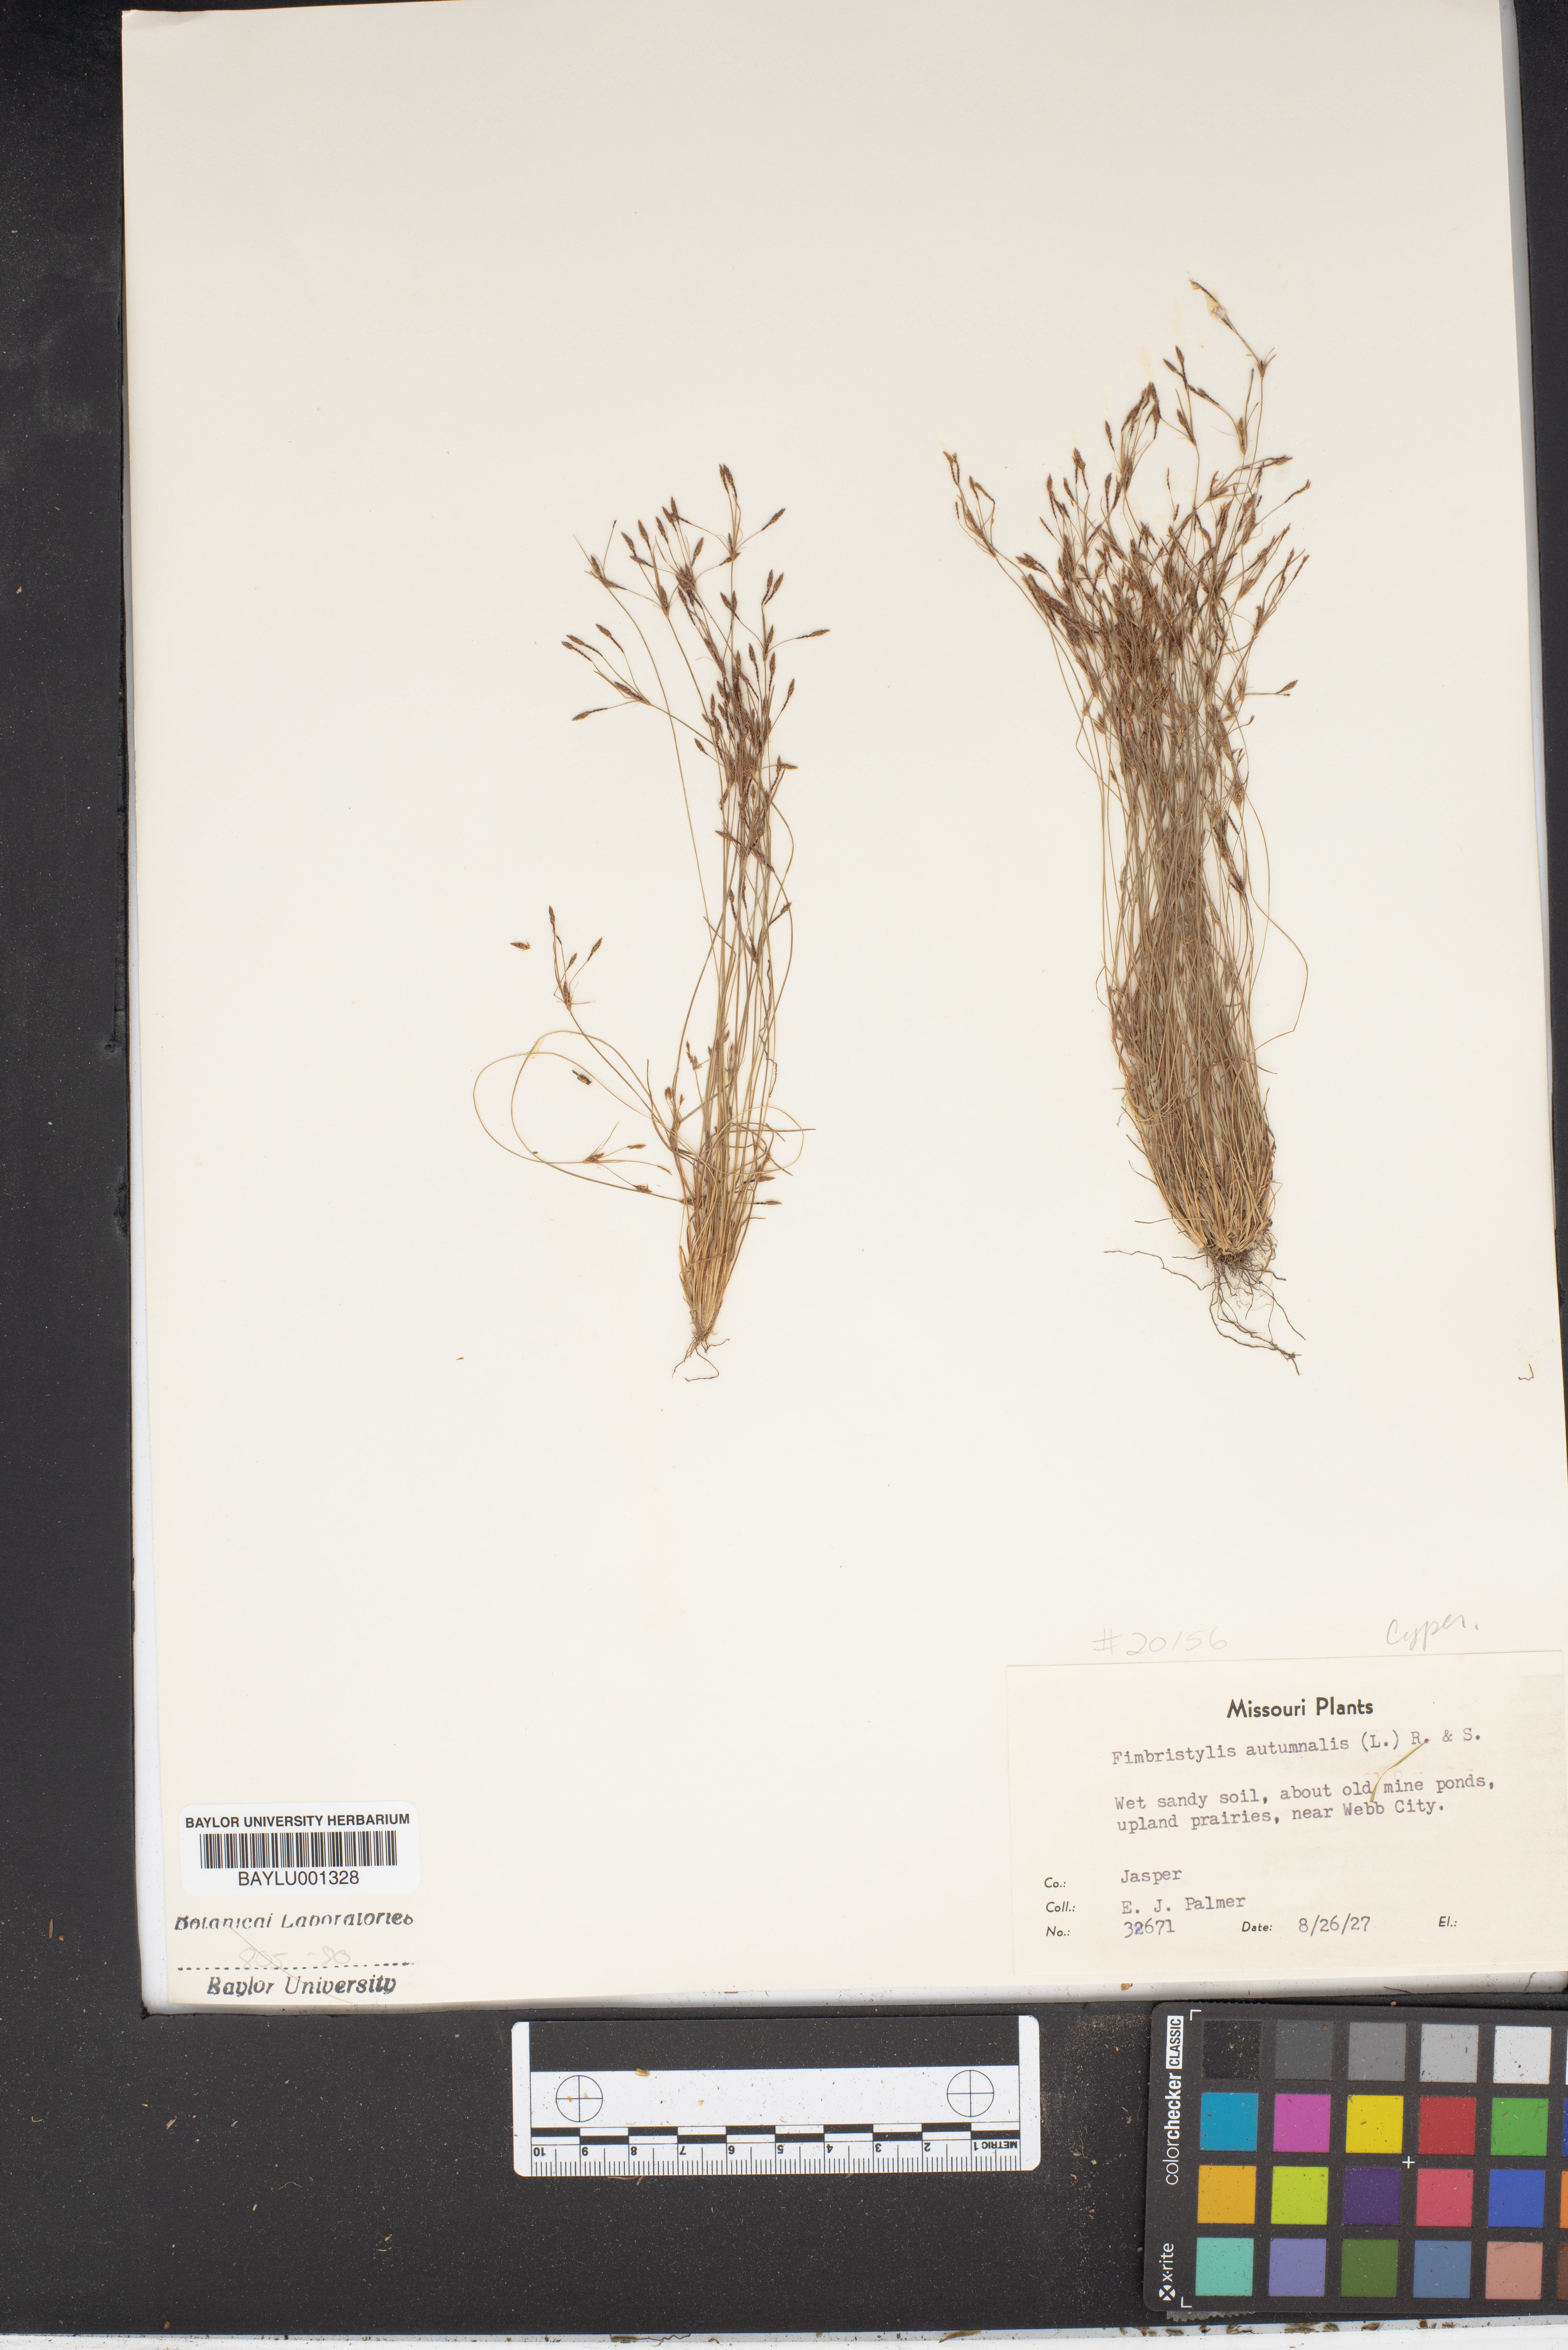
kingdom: Plantae
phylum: Tracheophyta
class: Liliopsida
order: Poales
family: Cyperaceae
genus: Fimbristylis
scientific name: Fimbristylis autumnalis
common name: Slender fimbristylis
